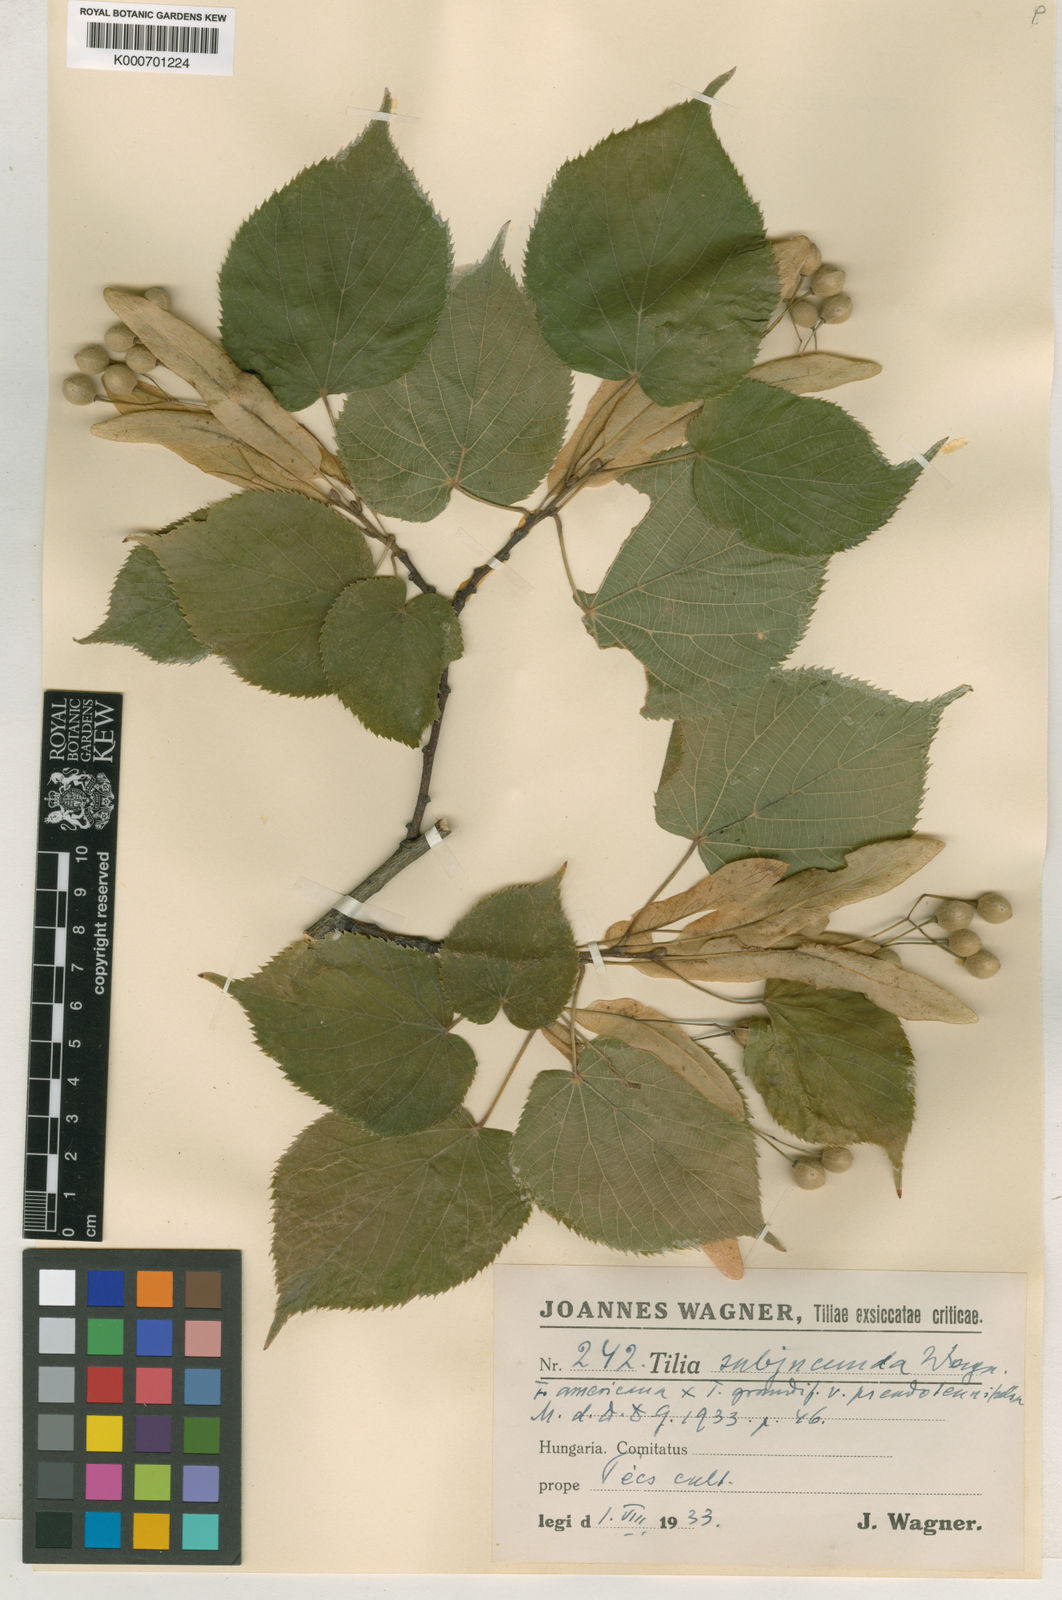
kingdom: Plantae
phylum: Tracheophyta
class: Magnoliopsida
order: Malvales
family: Malvaceae
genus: Tilia
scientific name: Tilia flaccida
